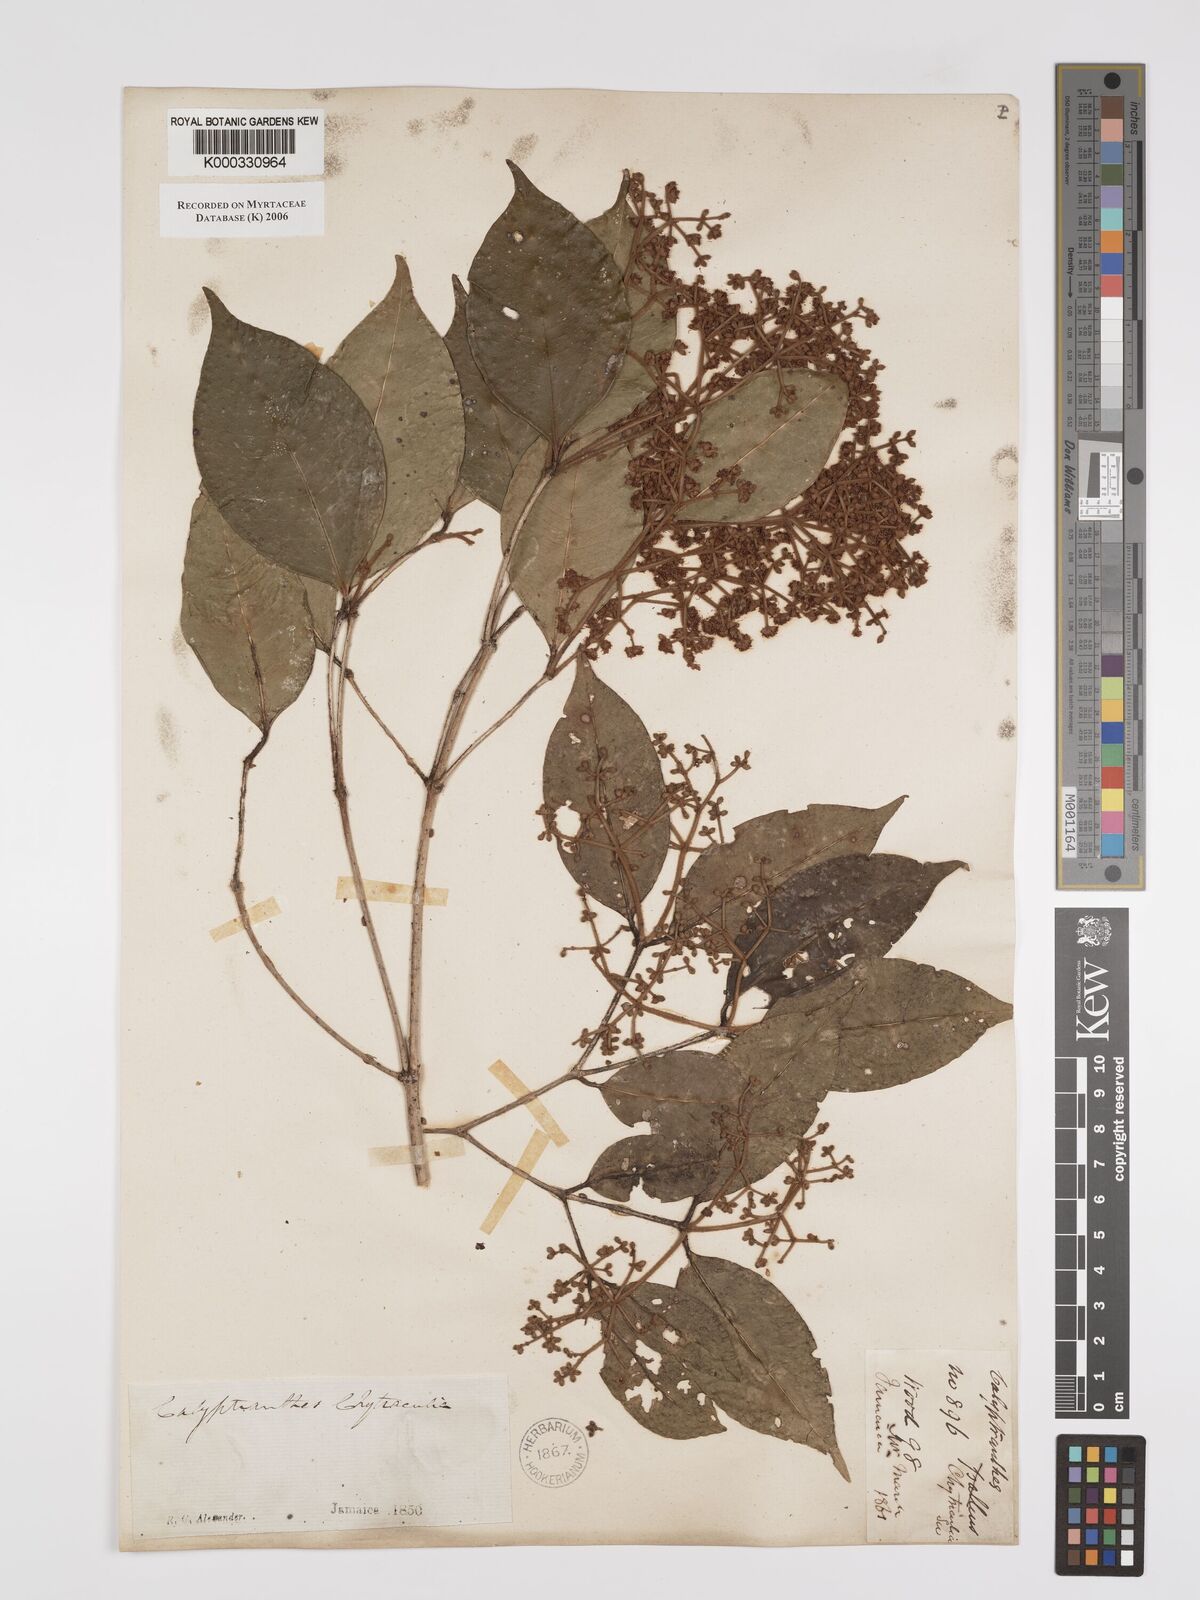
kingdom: Plantae
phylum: Tracheophyta
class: Magnoliopsida
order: Myrtales
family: Myrtaceae
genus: Myrcia
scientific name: Myrcia chytraculia
